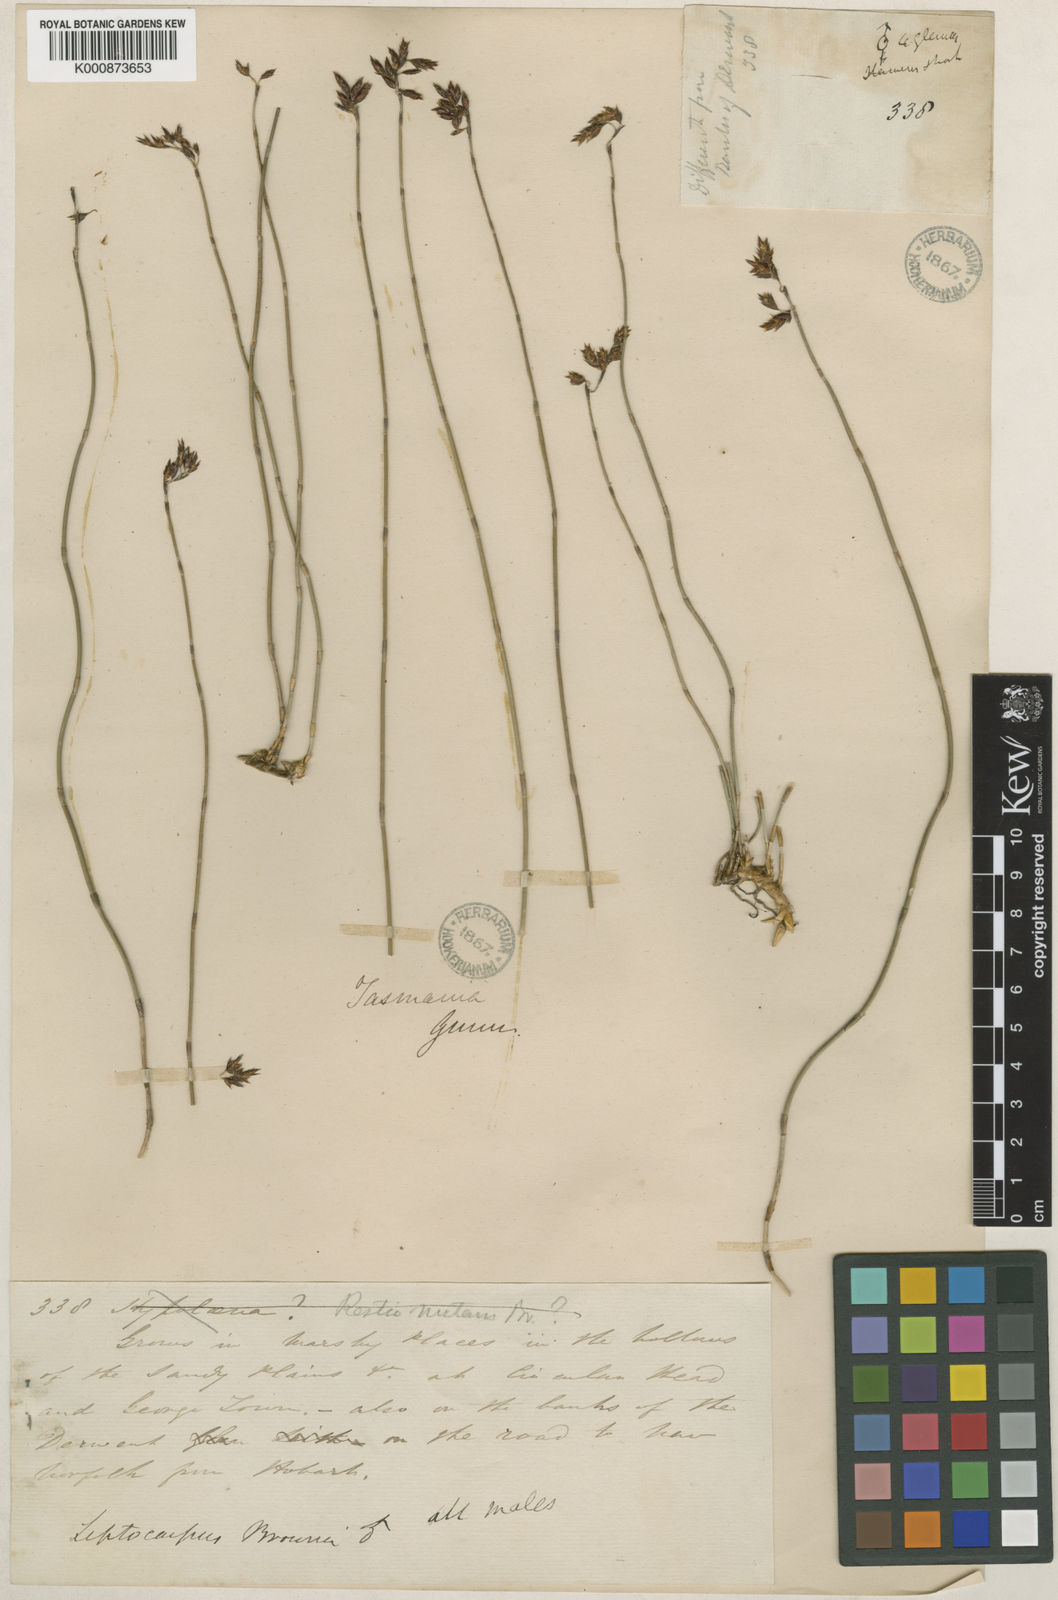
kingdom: Plantae
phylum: Tracheophyta
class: Liliopsida
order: Poales
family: Restionaceae
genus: Apodasmia
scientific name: Apodasmia brownii
